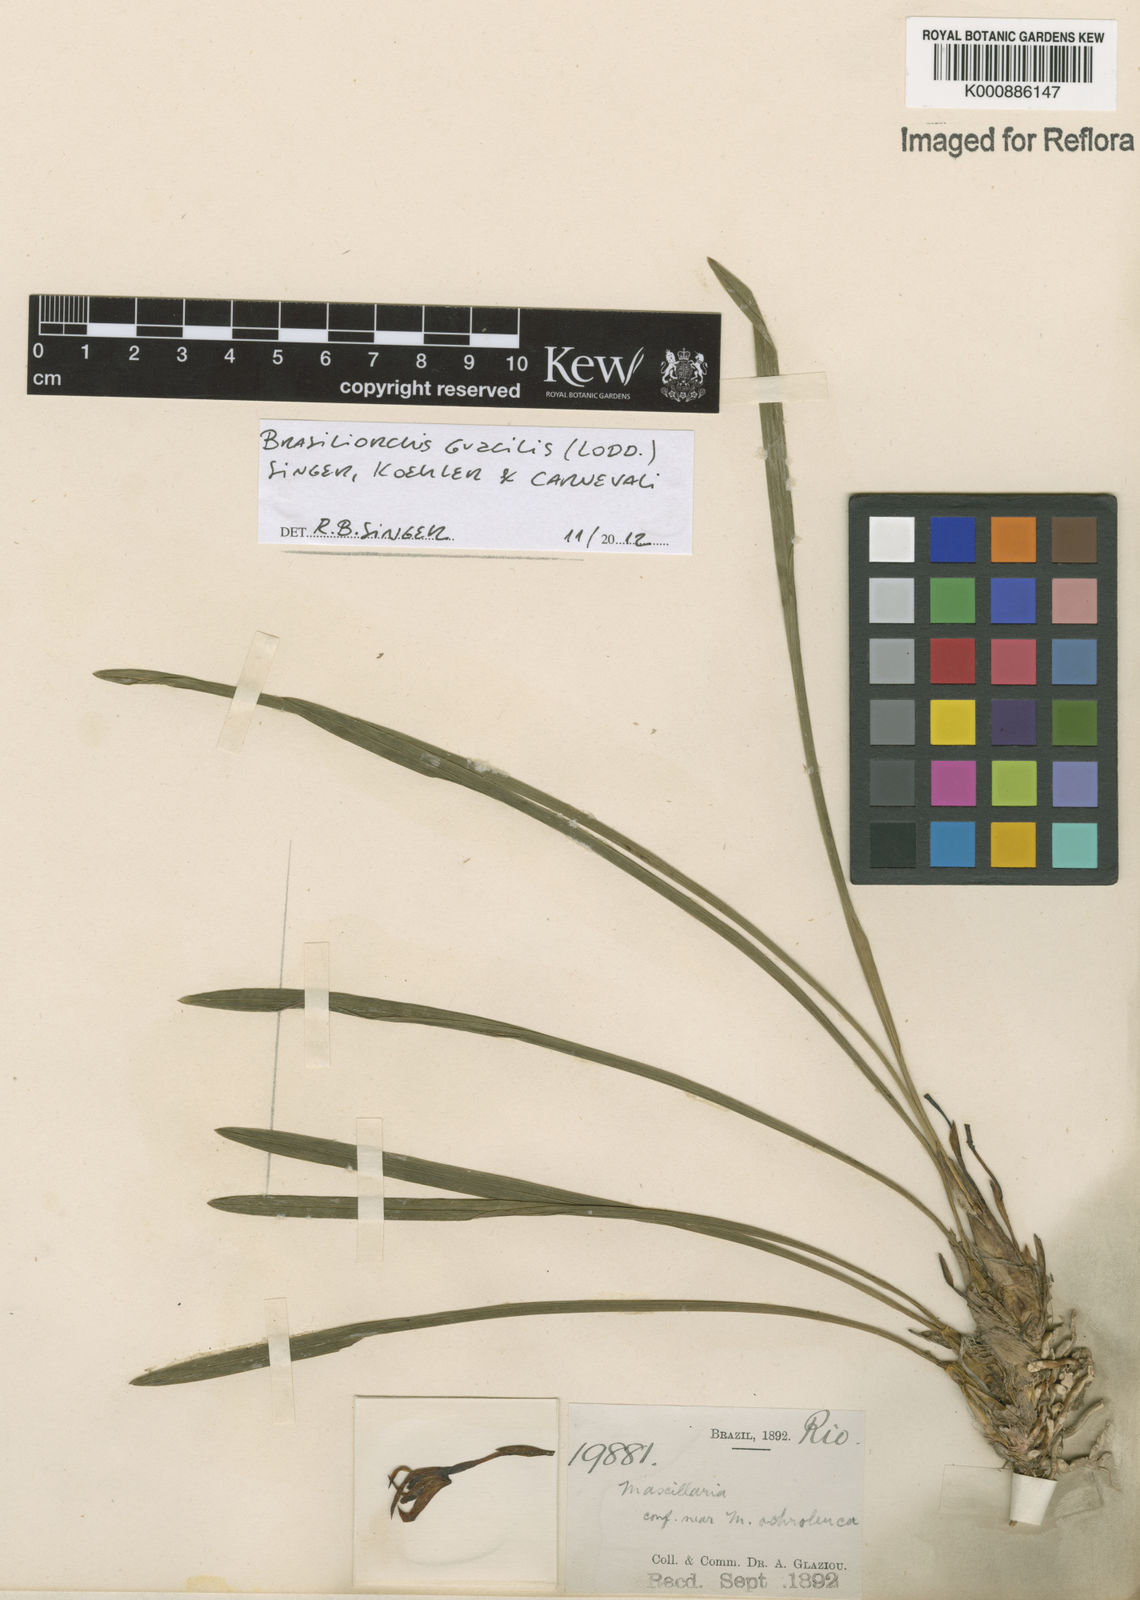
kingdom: Plantae
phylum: Tracheophyta
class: Liliopsida
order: Asparagales
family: Orchidaceae
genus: Maxillaria
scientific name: Maxillaria
